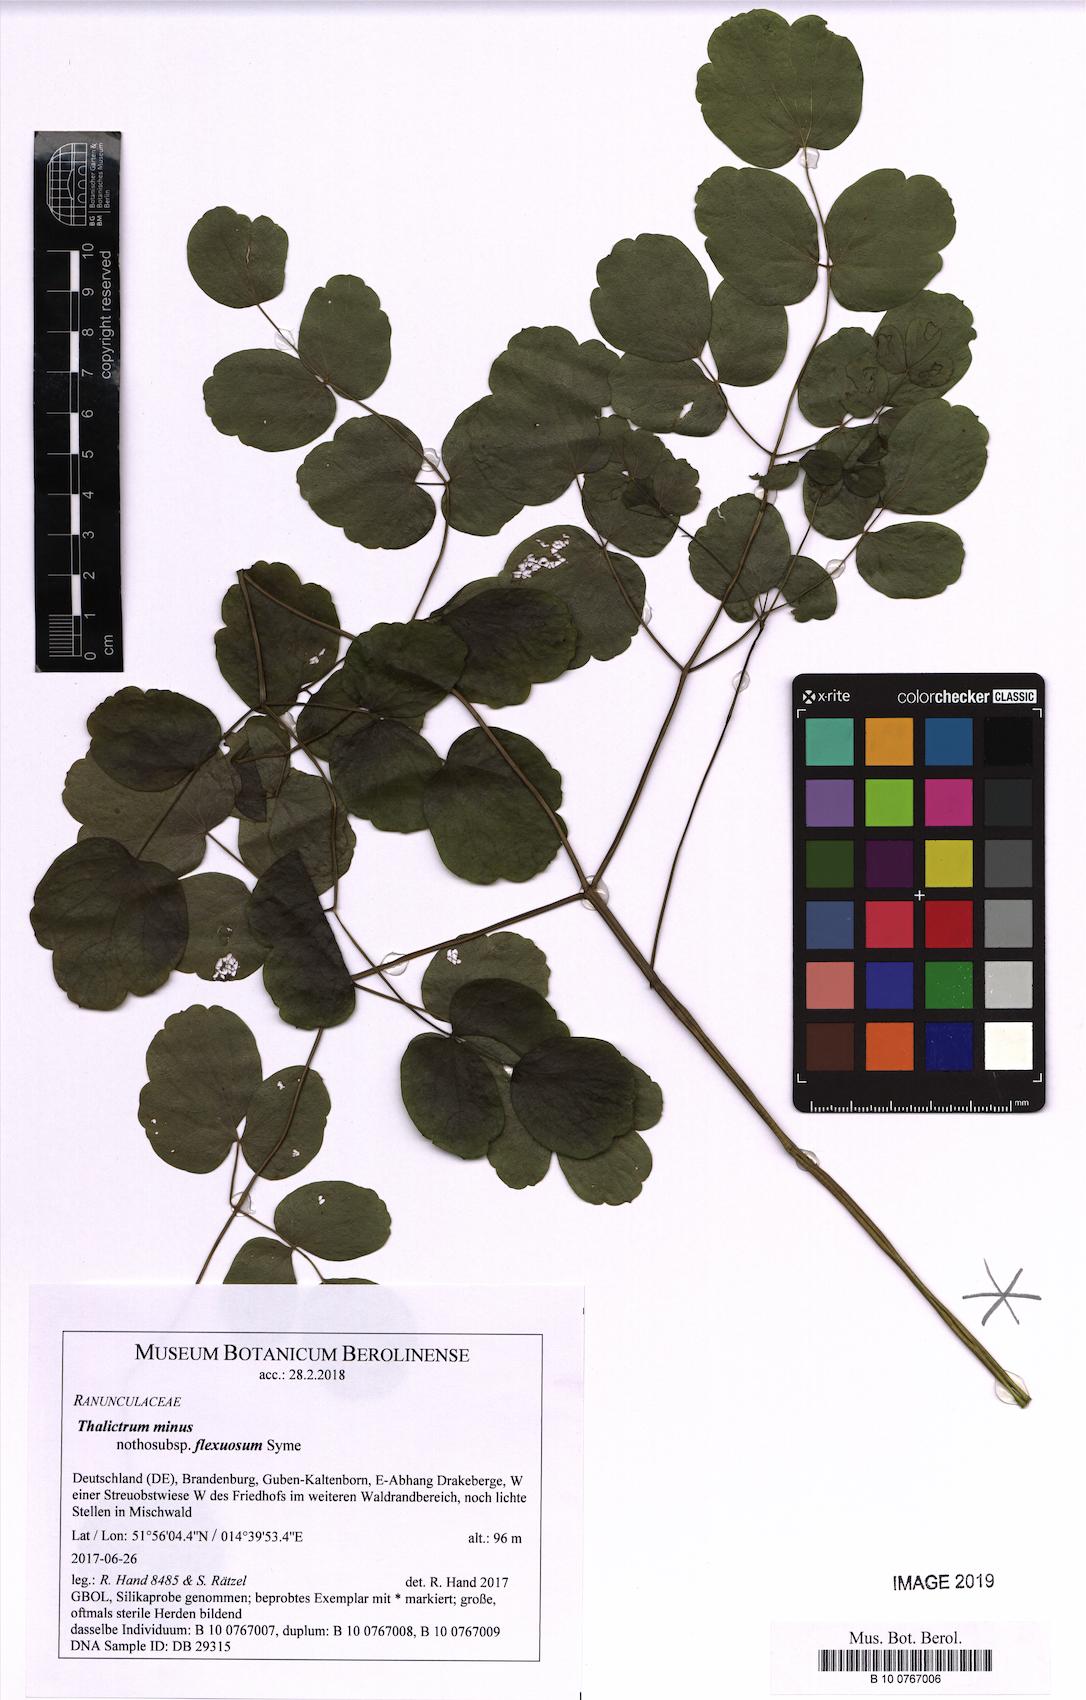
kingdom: Plantae
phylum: Tracheophyta
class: Magnoliopsida
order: Ranunculales
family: Ranunculaceae
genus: Thalictrum
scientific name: Thalictrum minus
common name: Lesser meadow-rue
